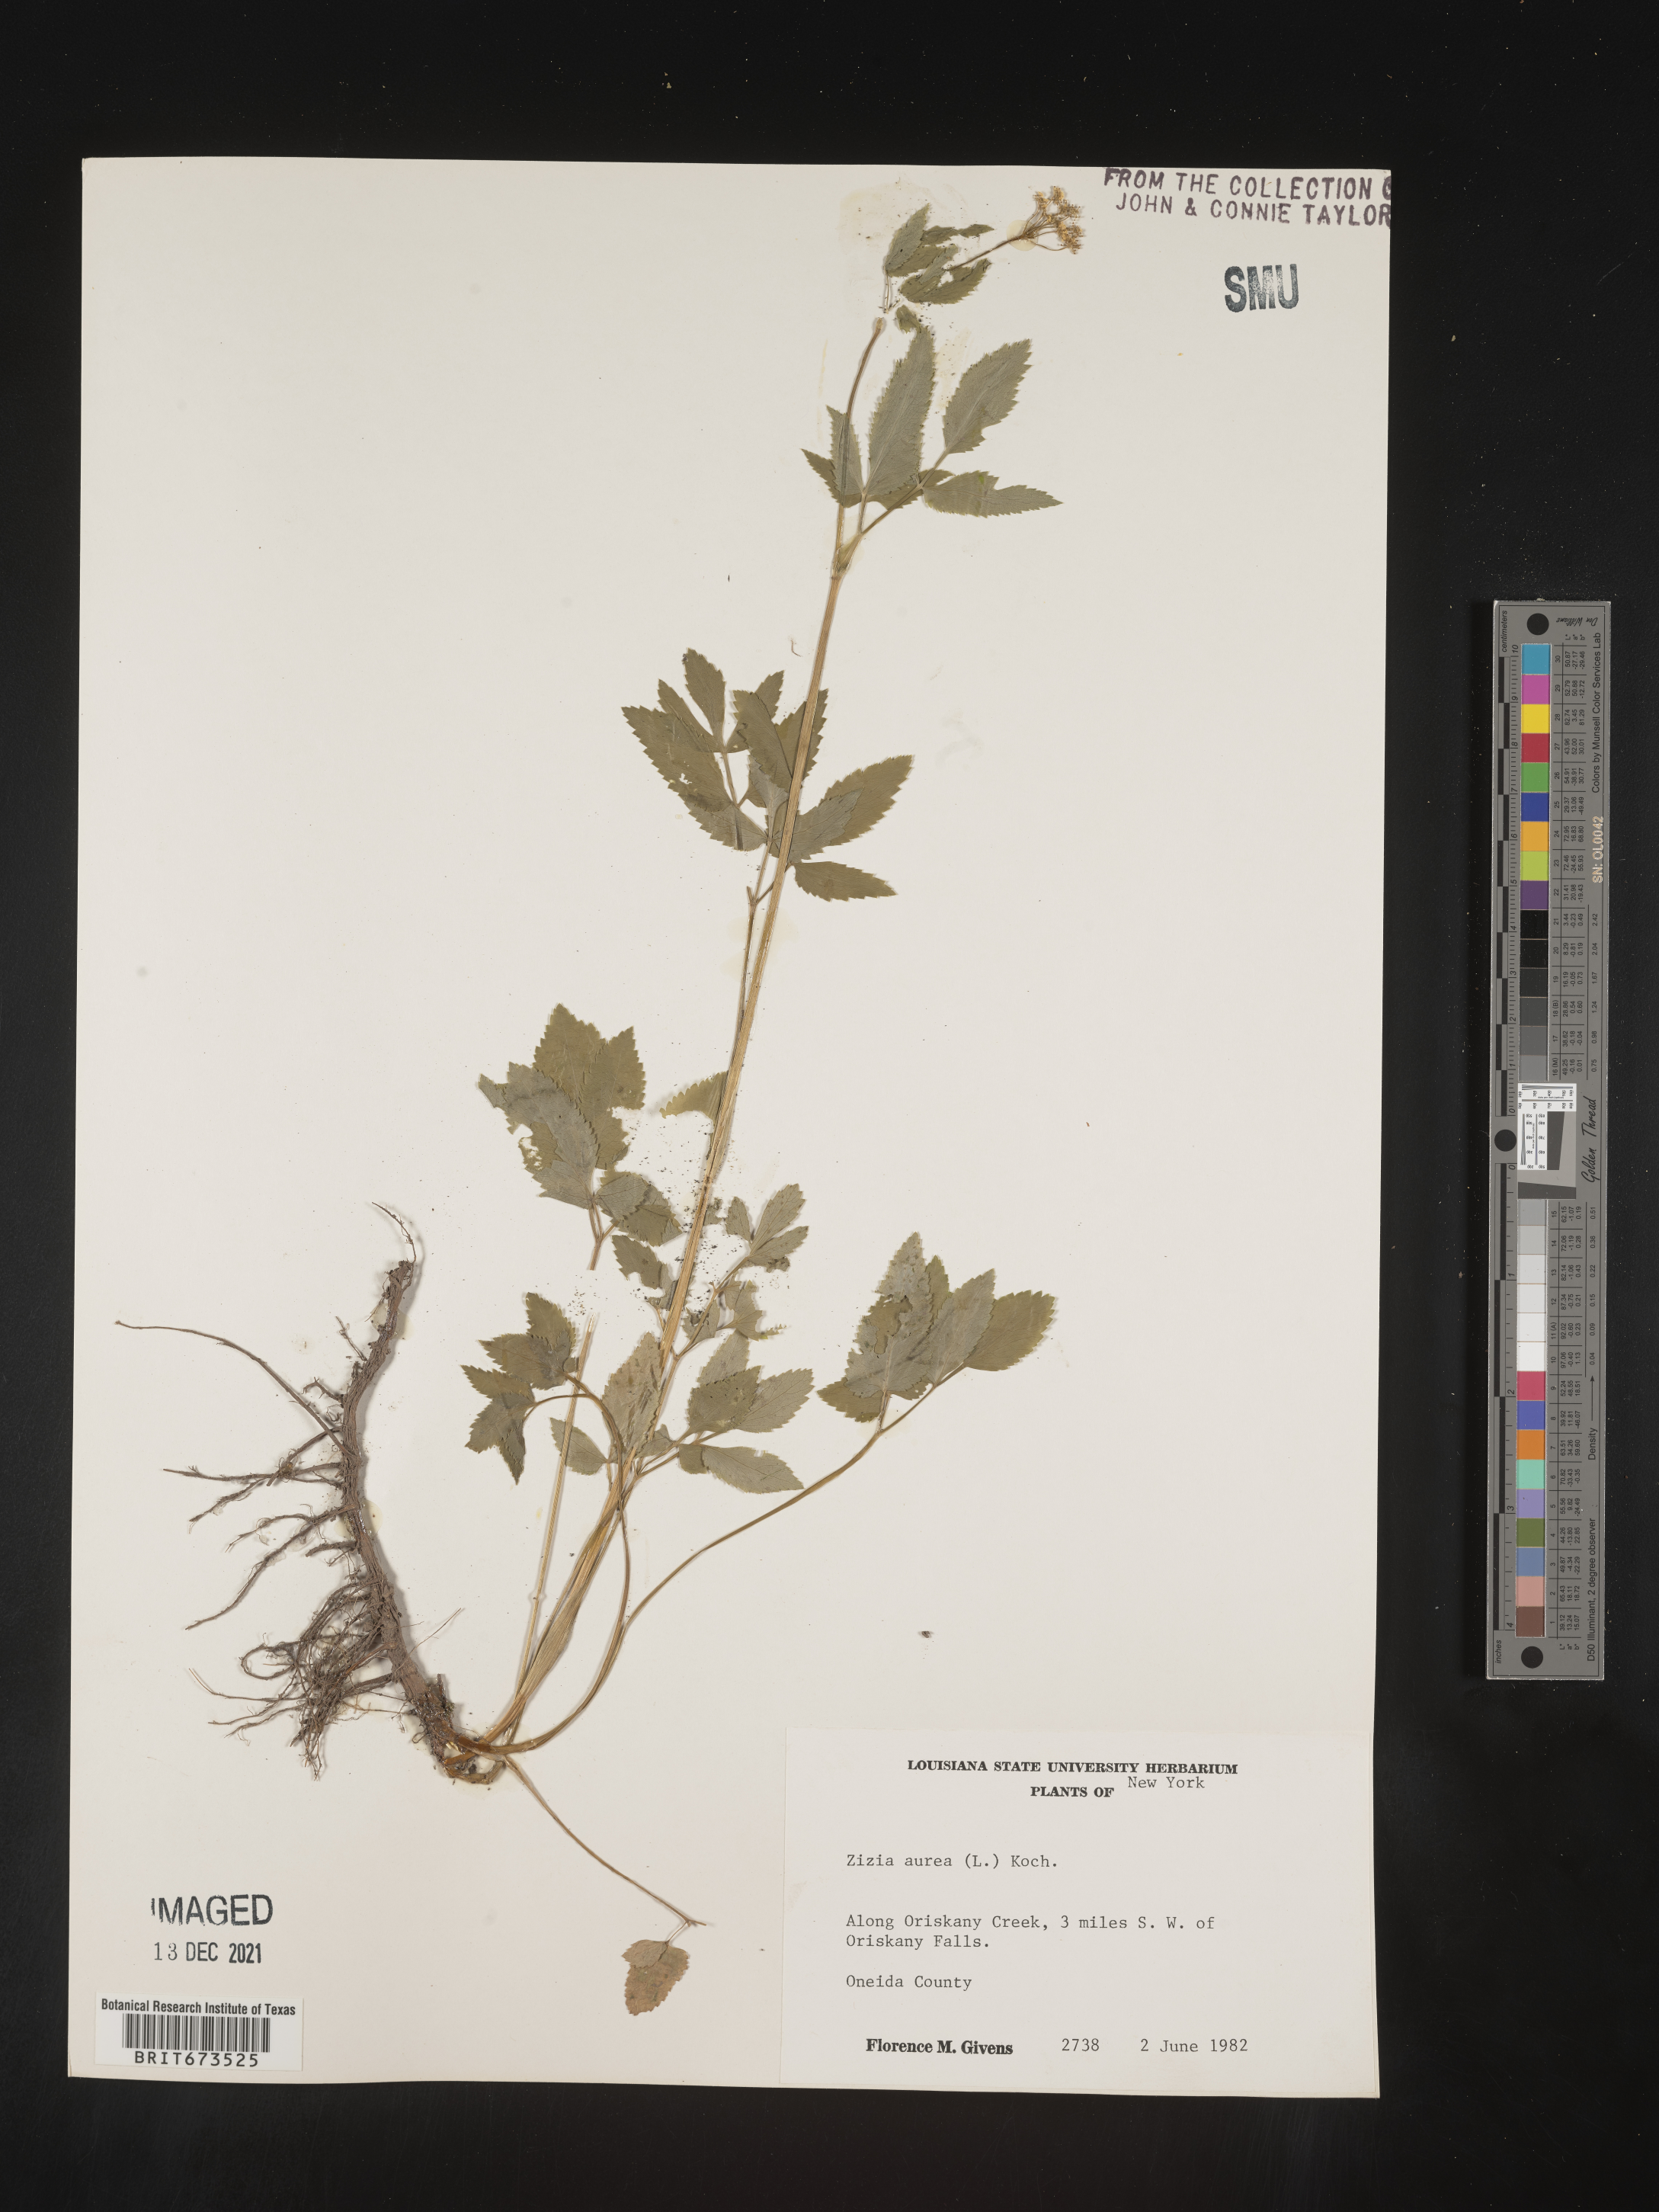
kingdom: Plantae
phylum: Tracheophyta
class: Magnoliopsida
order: Apiales
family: Apiaceae
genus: Zizia
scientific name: Zizia aurea
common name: Golden alexanders
